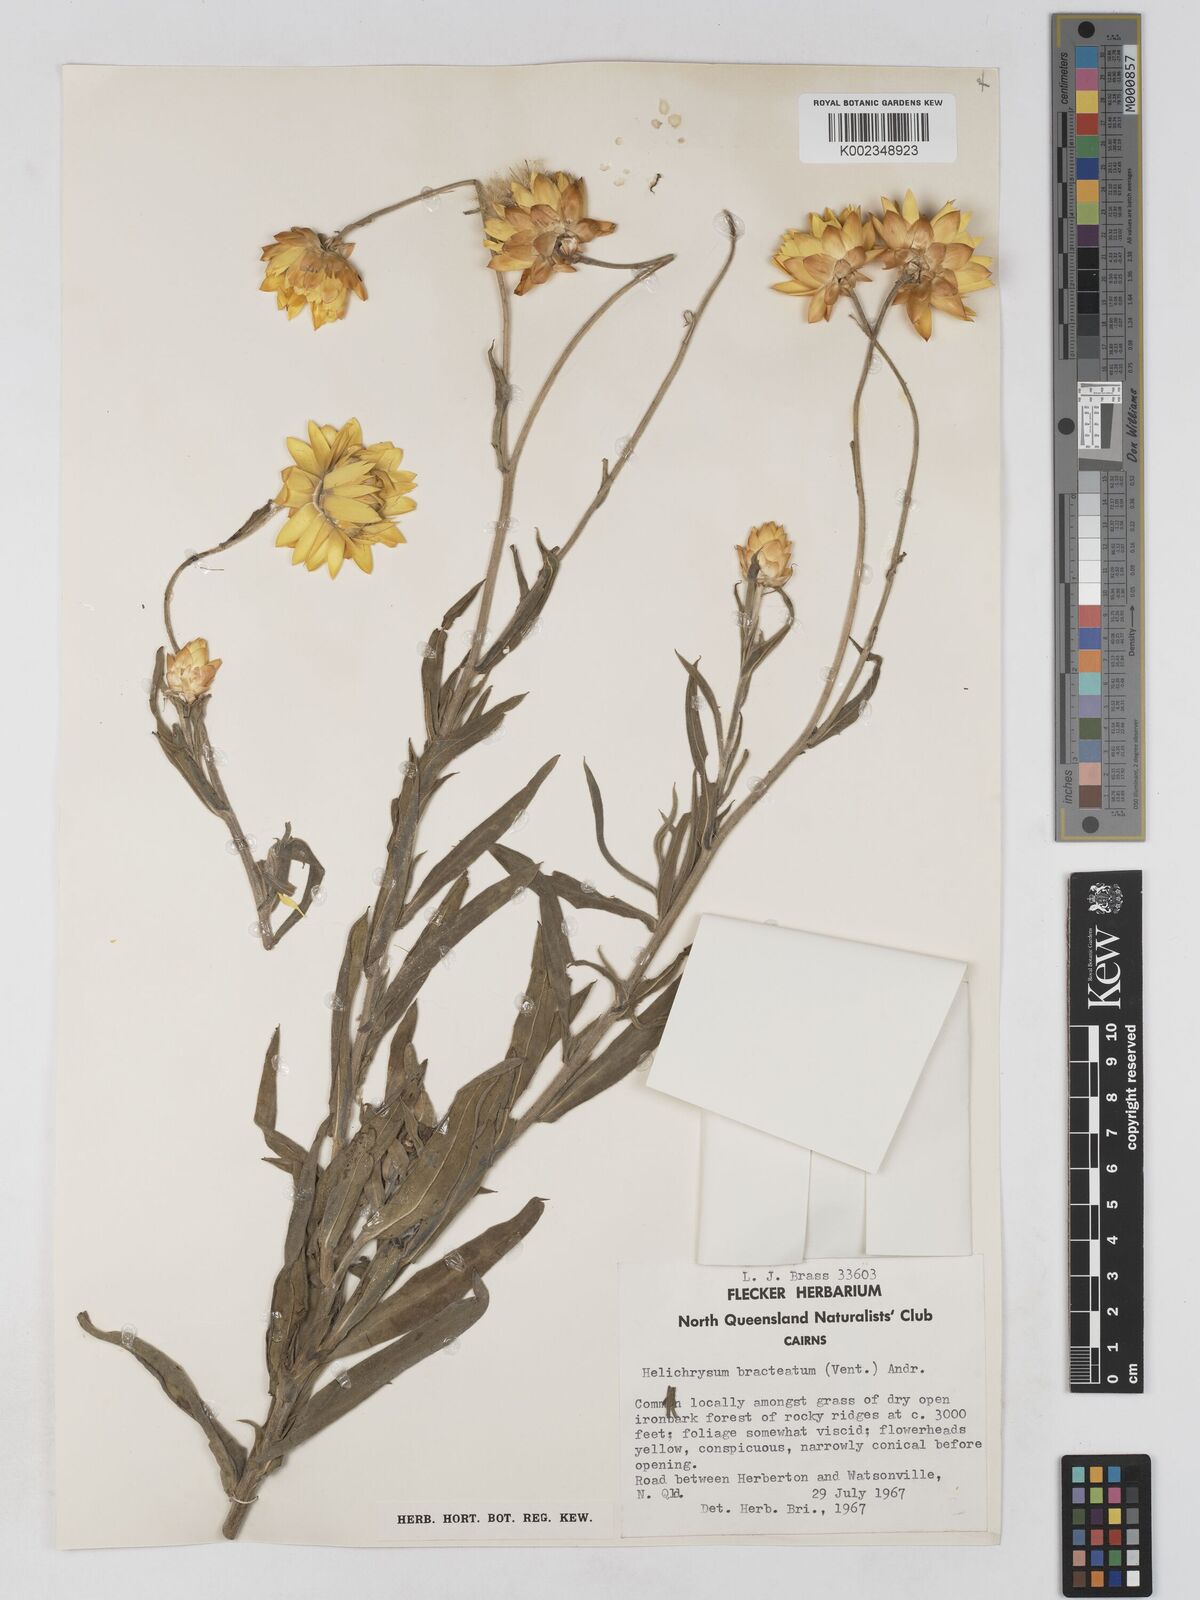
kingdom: Plantae
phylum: Tracheophyta
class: Magnoliopsida
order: Asterales
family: Asteraceae
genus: Xerochrysum
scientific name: Xerochrysum bracteatum
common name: Bracted strawflower
